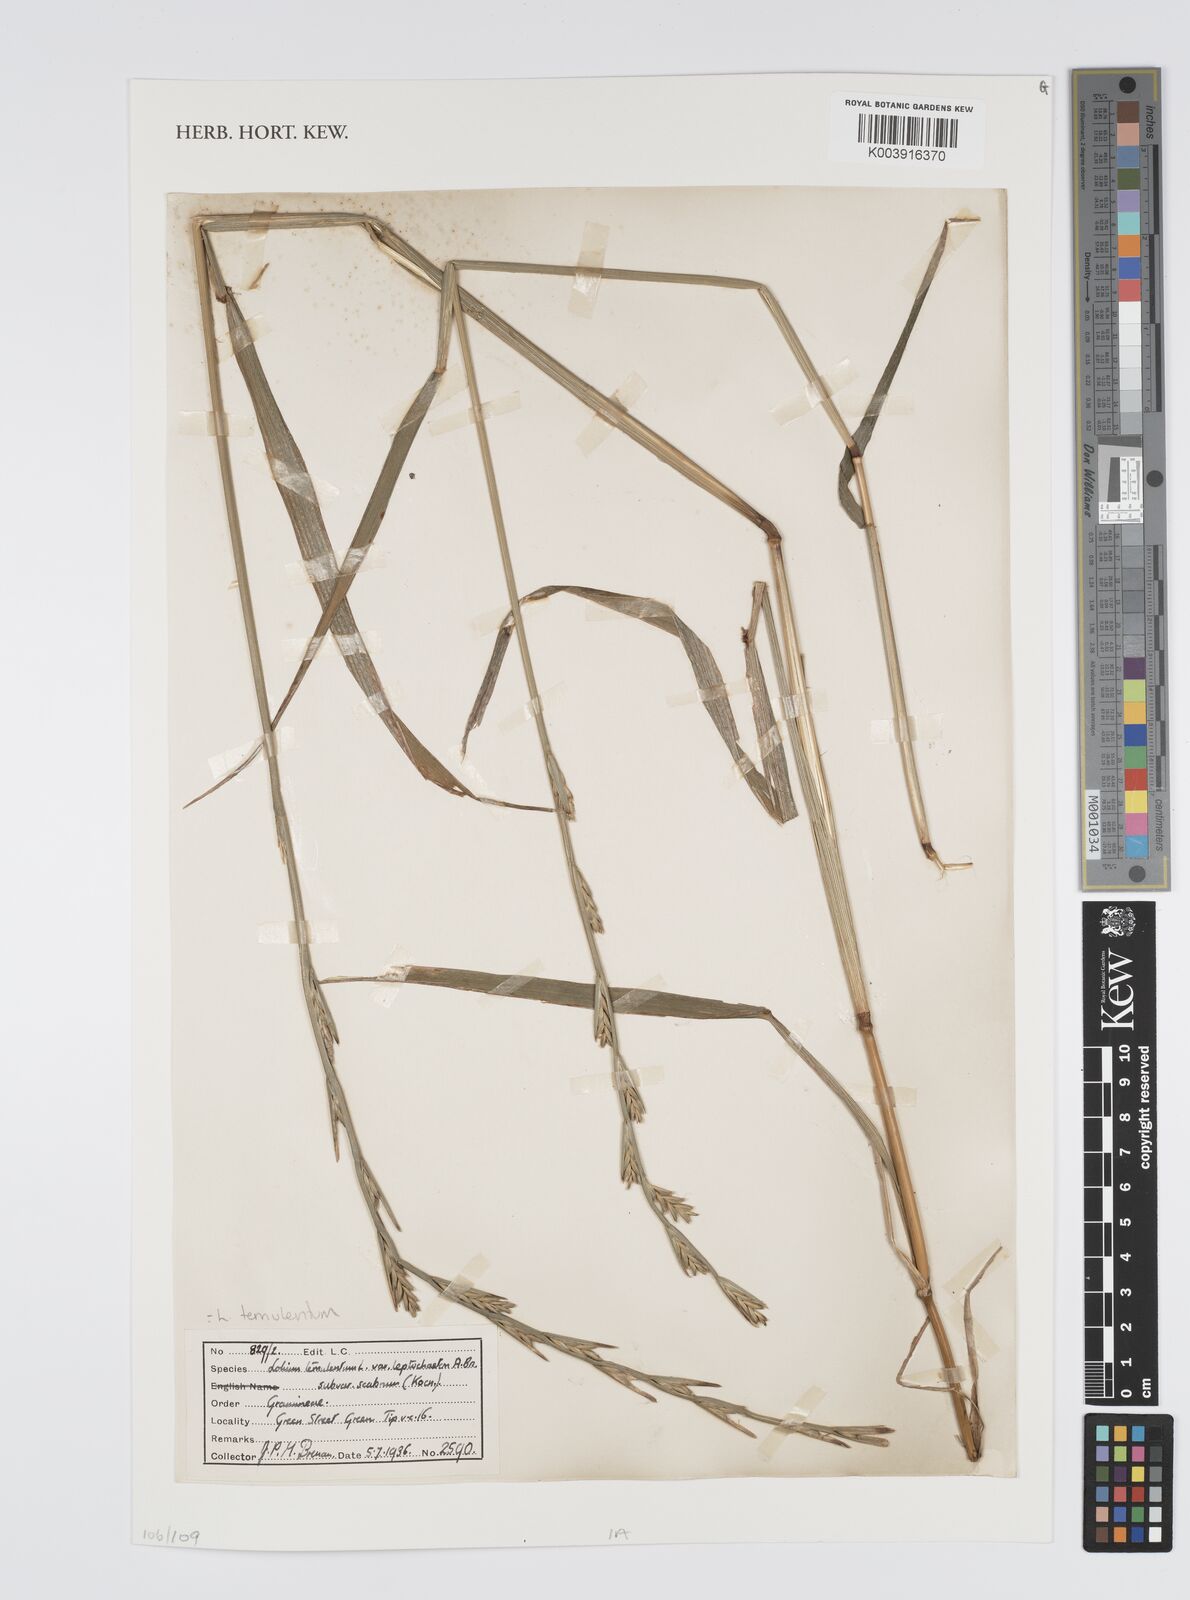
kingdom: Plantae
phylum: Tracheophyta
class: Liliopsida
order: Poales
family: Poaceae
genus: Lolium
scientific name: Lolium temulentum
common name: Darnel
